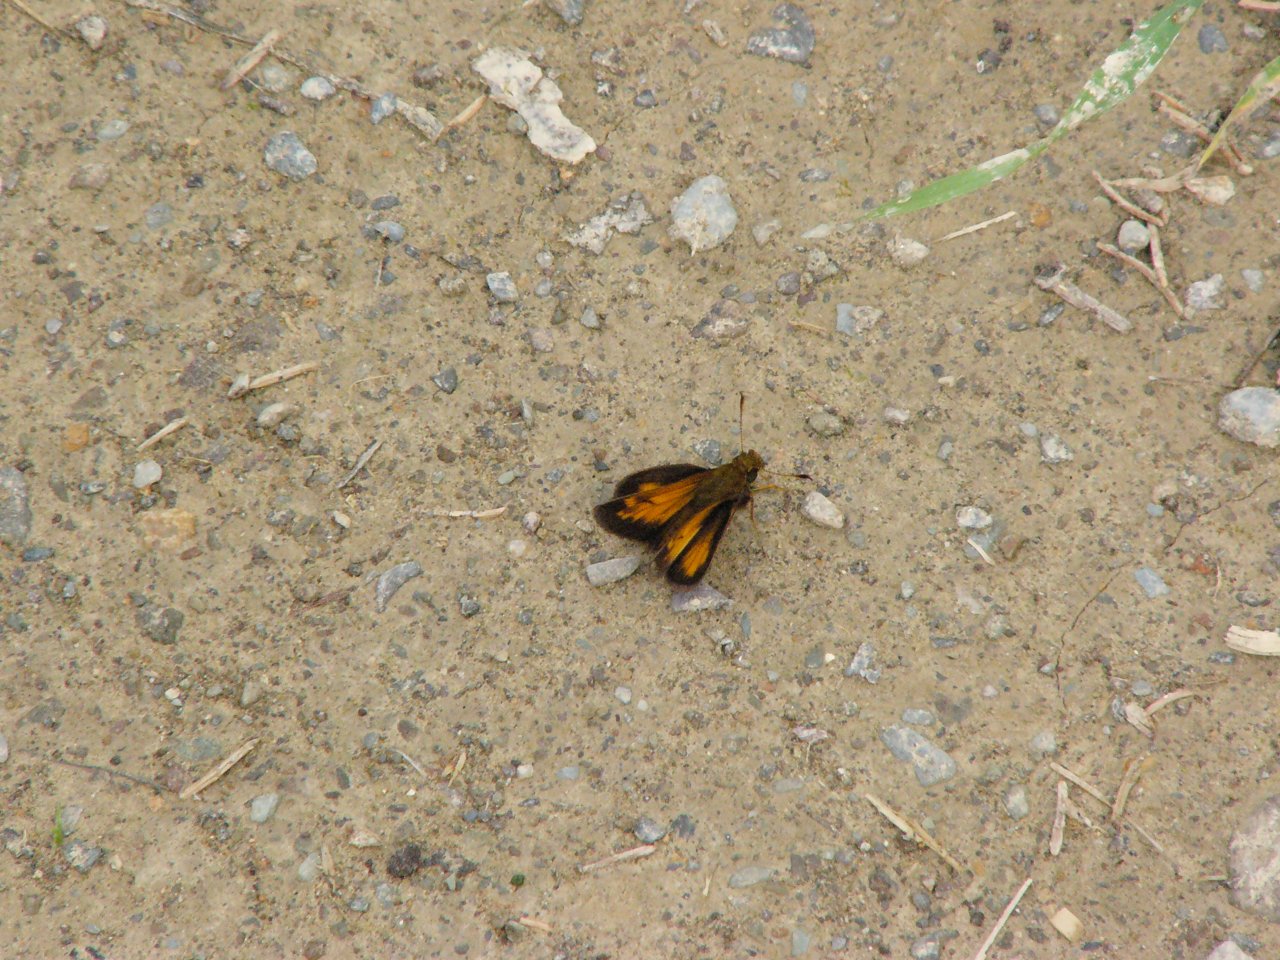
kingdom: Animalia
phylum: Arthropoda
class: Insecta
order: Lepidoptera
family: Hesperiidae
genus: Lon
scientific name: Lon hobomok
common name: Hobomok Skipper
